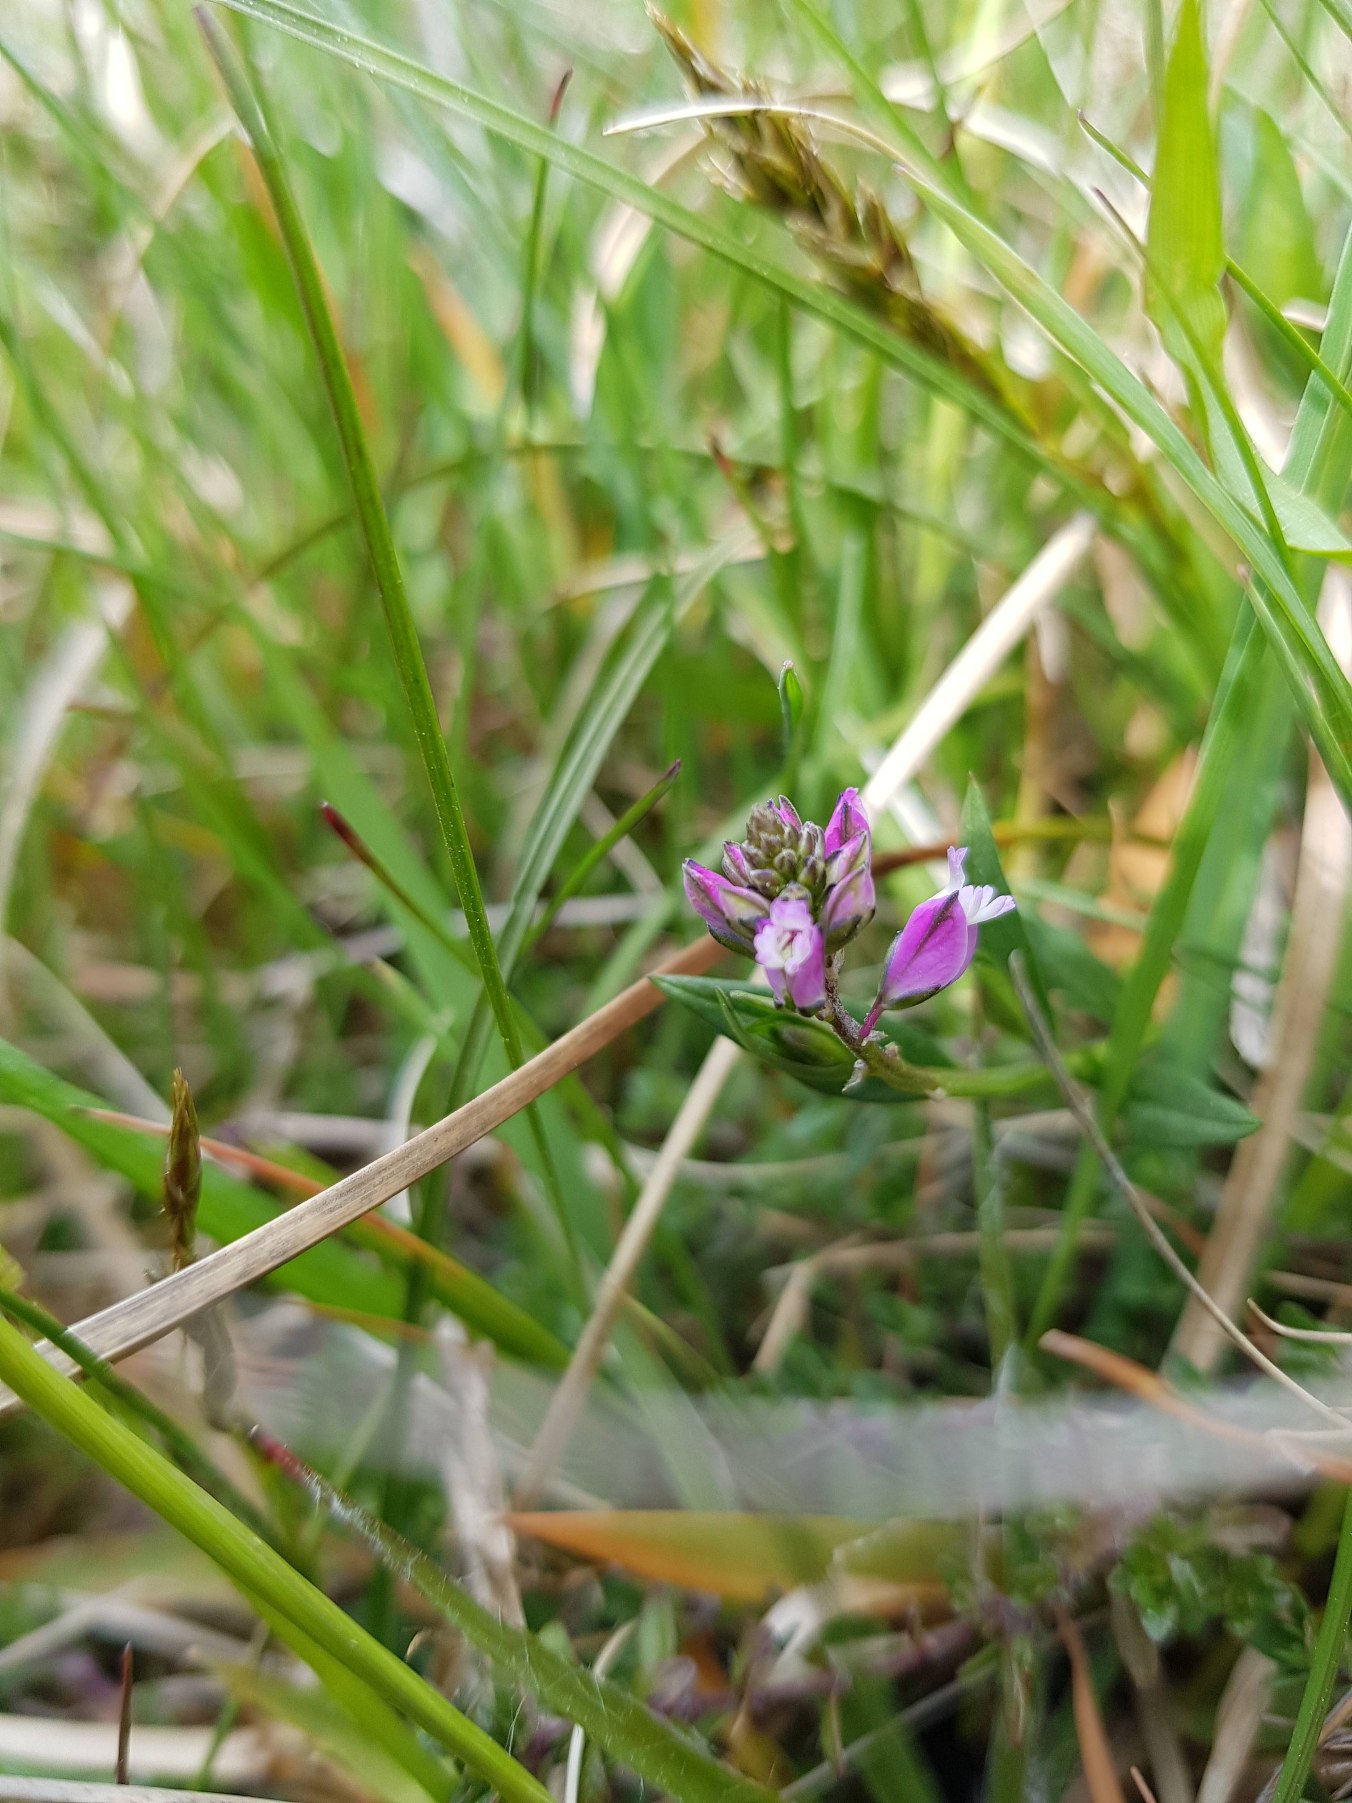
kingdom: Plantae
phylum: Tracheophyta
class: Magnoliopsida
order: Fabales
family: Polygalaceae
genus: Polygala
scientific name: Polygala vulgaris
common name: Almindelig mælkeurt
